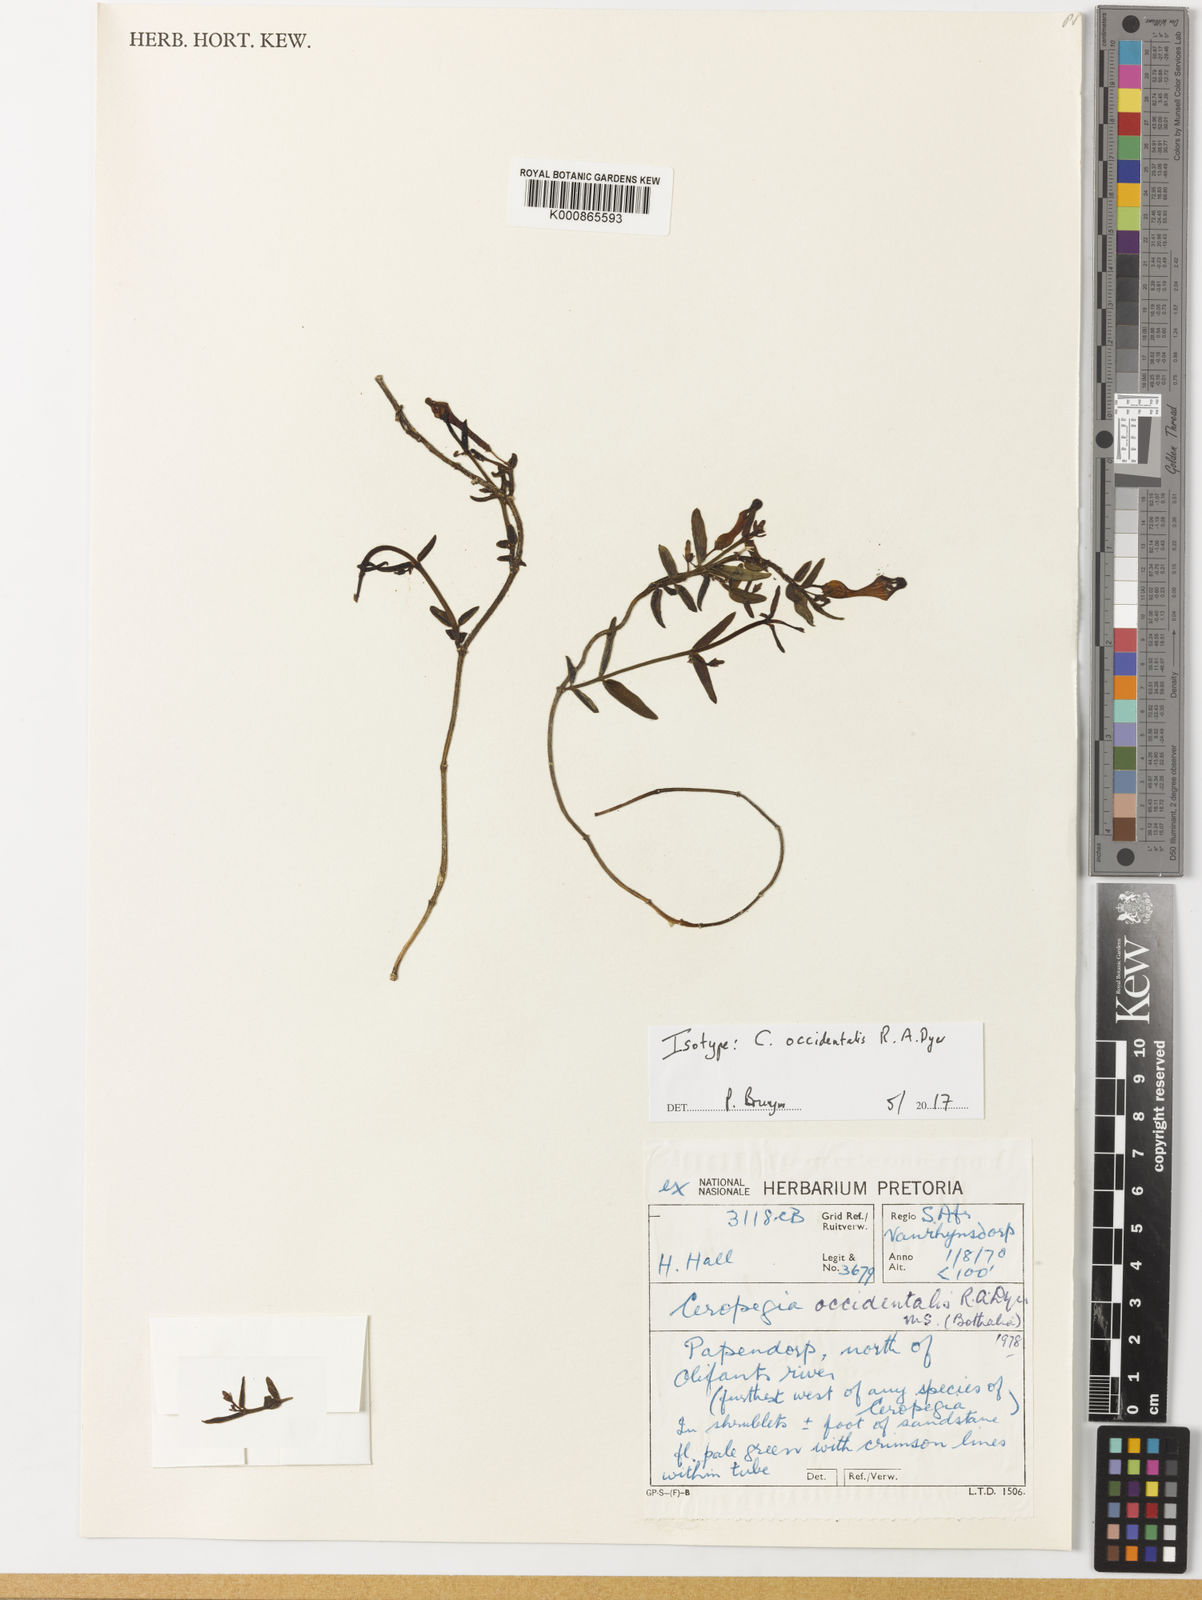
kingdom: Plantae
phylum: Tracheophyta
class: Magnoliopsida
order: Gentianales
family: Apocynaceae
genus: Ceropegia
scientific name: Ceropegia occidentalis
